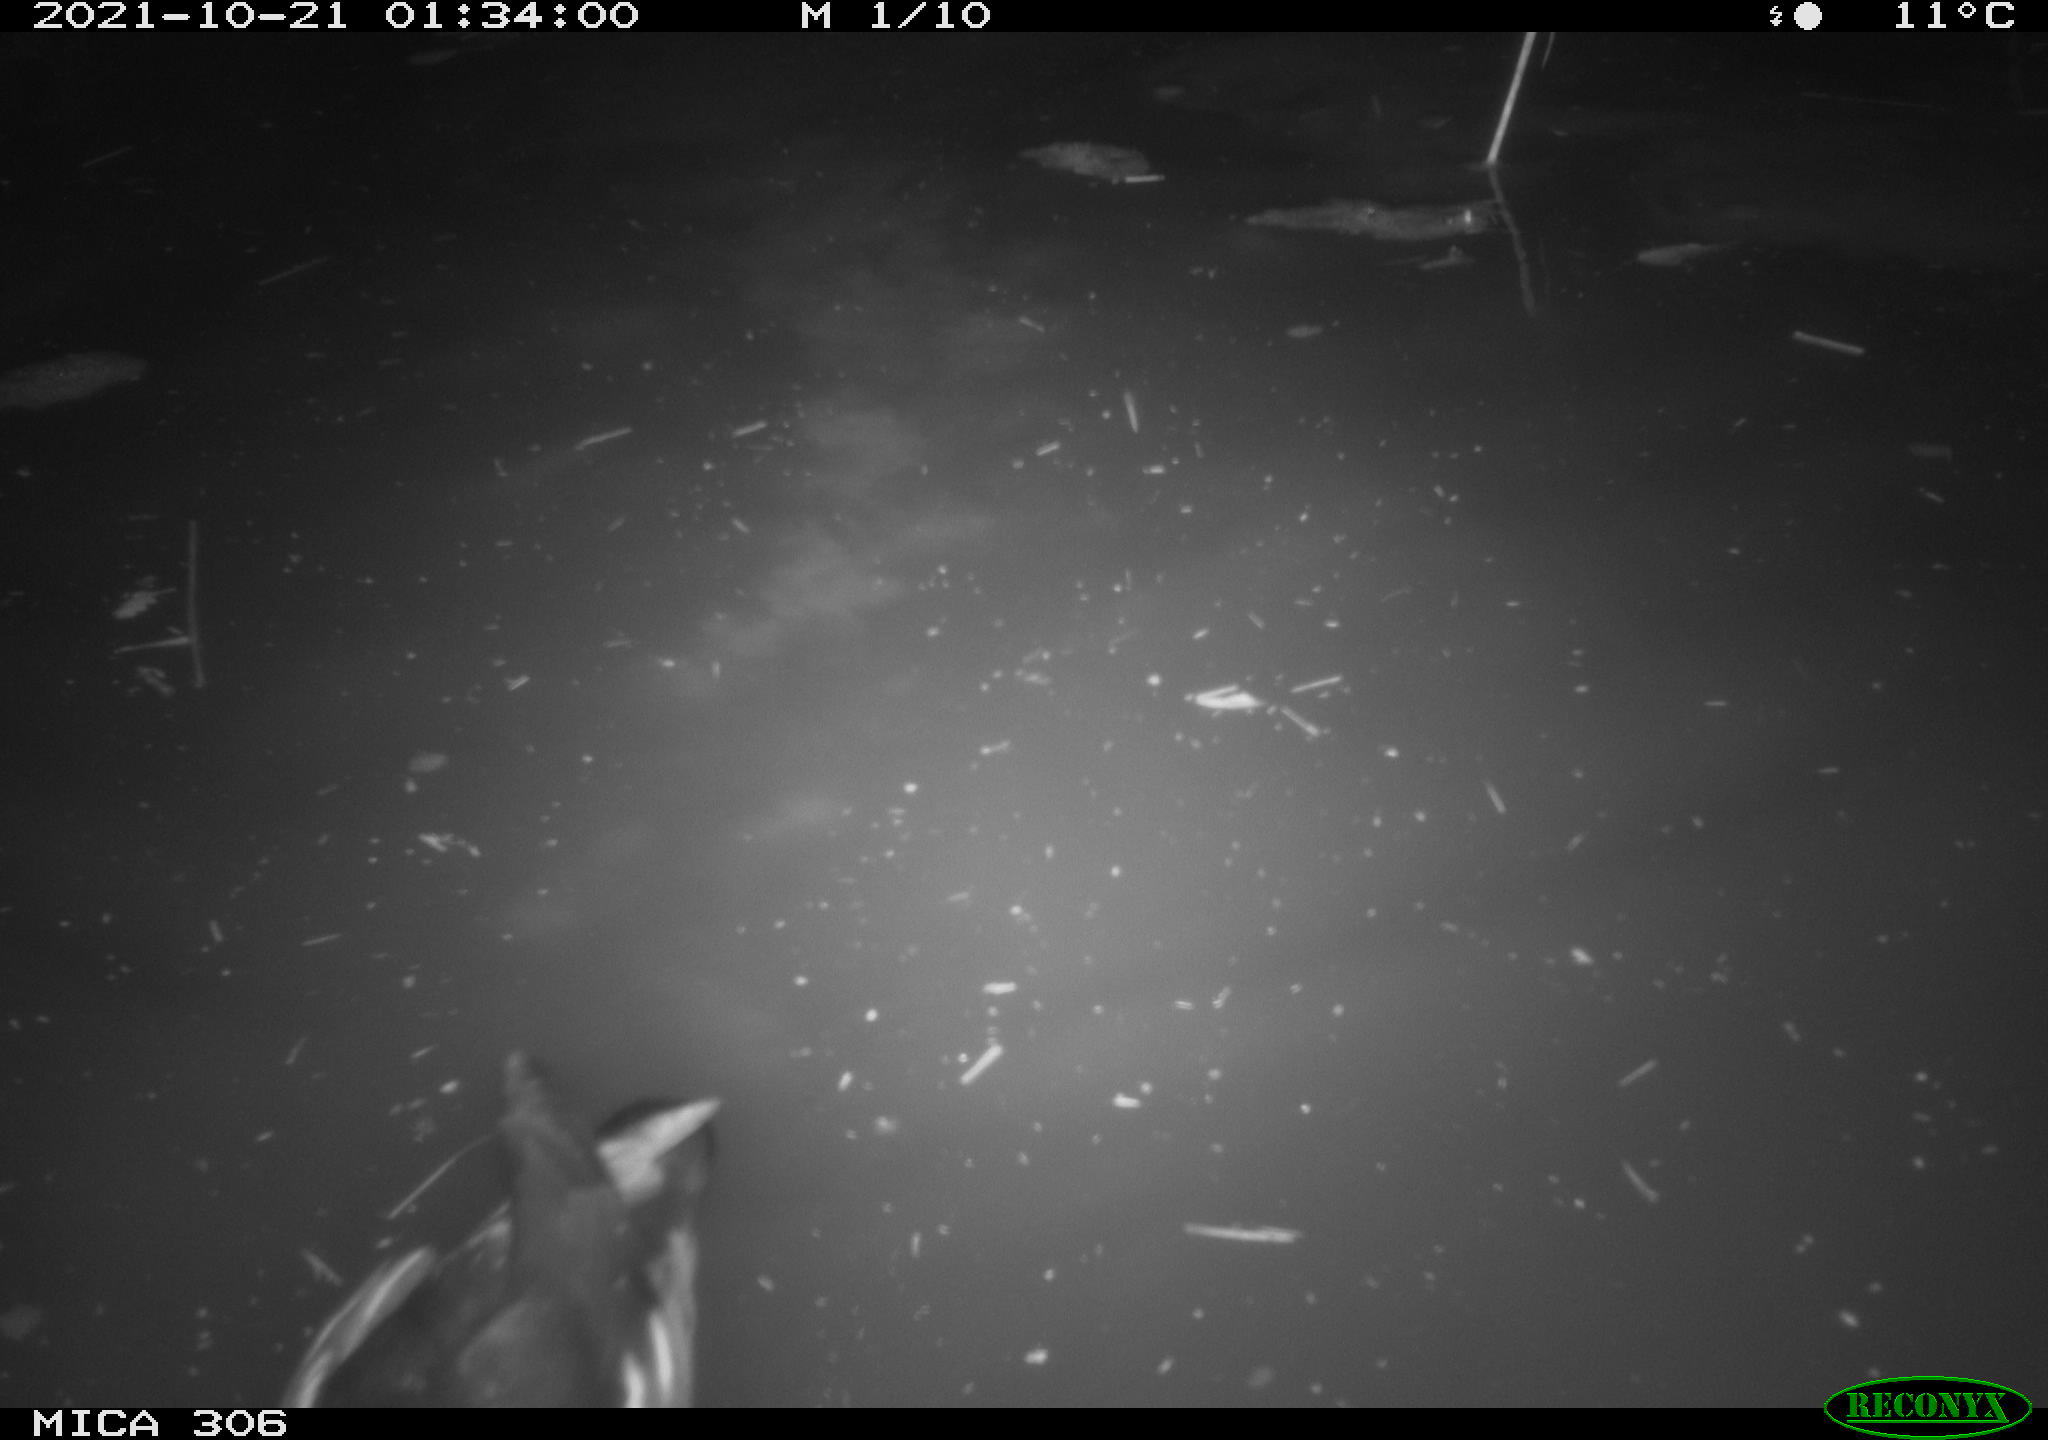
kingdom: Animalia
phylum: Chordata
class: Aves
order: Gruiformes
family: Rallidae
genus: Gallinula
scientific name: Gallinula chloropus
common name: Common moorhen
